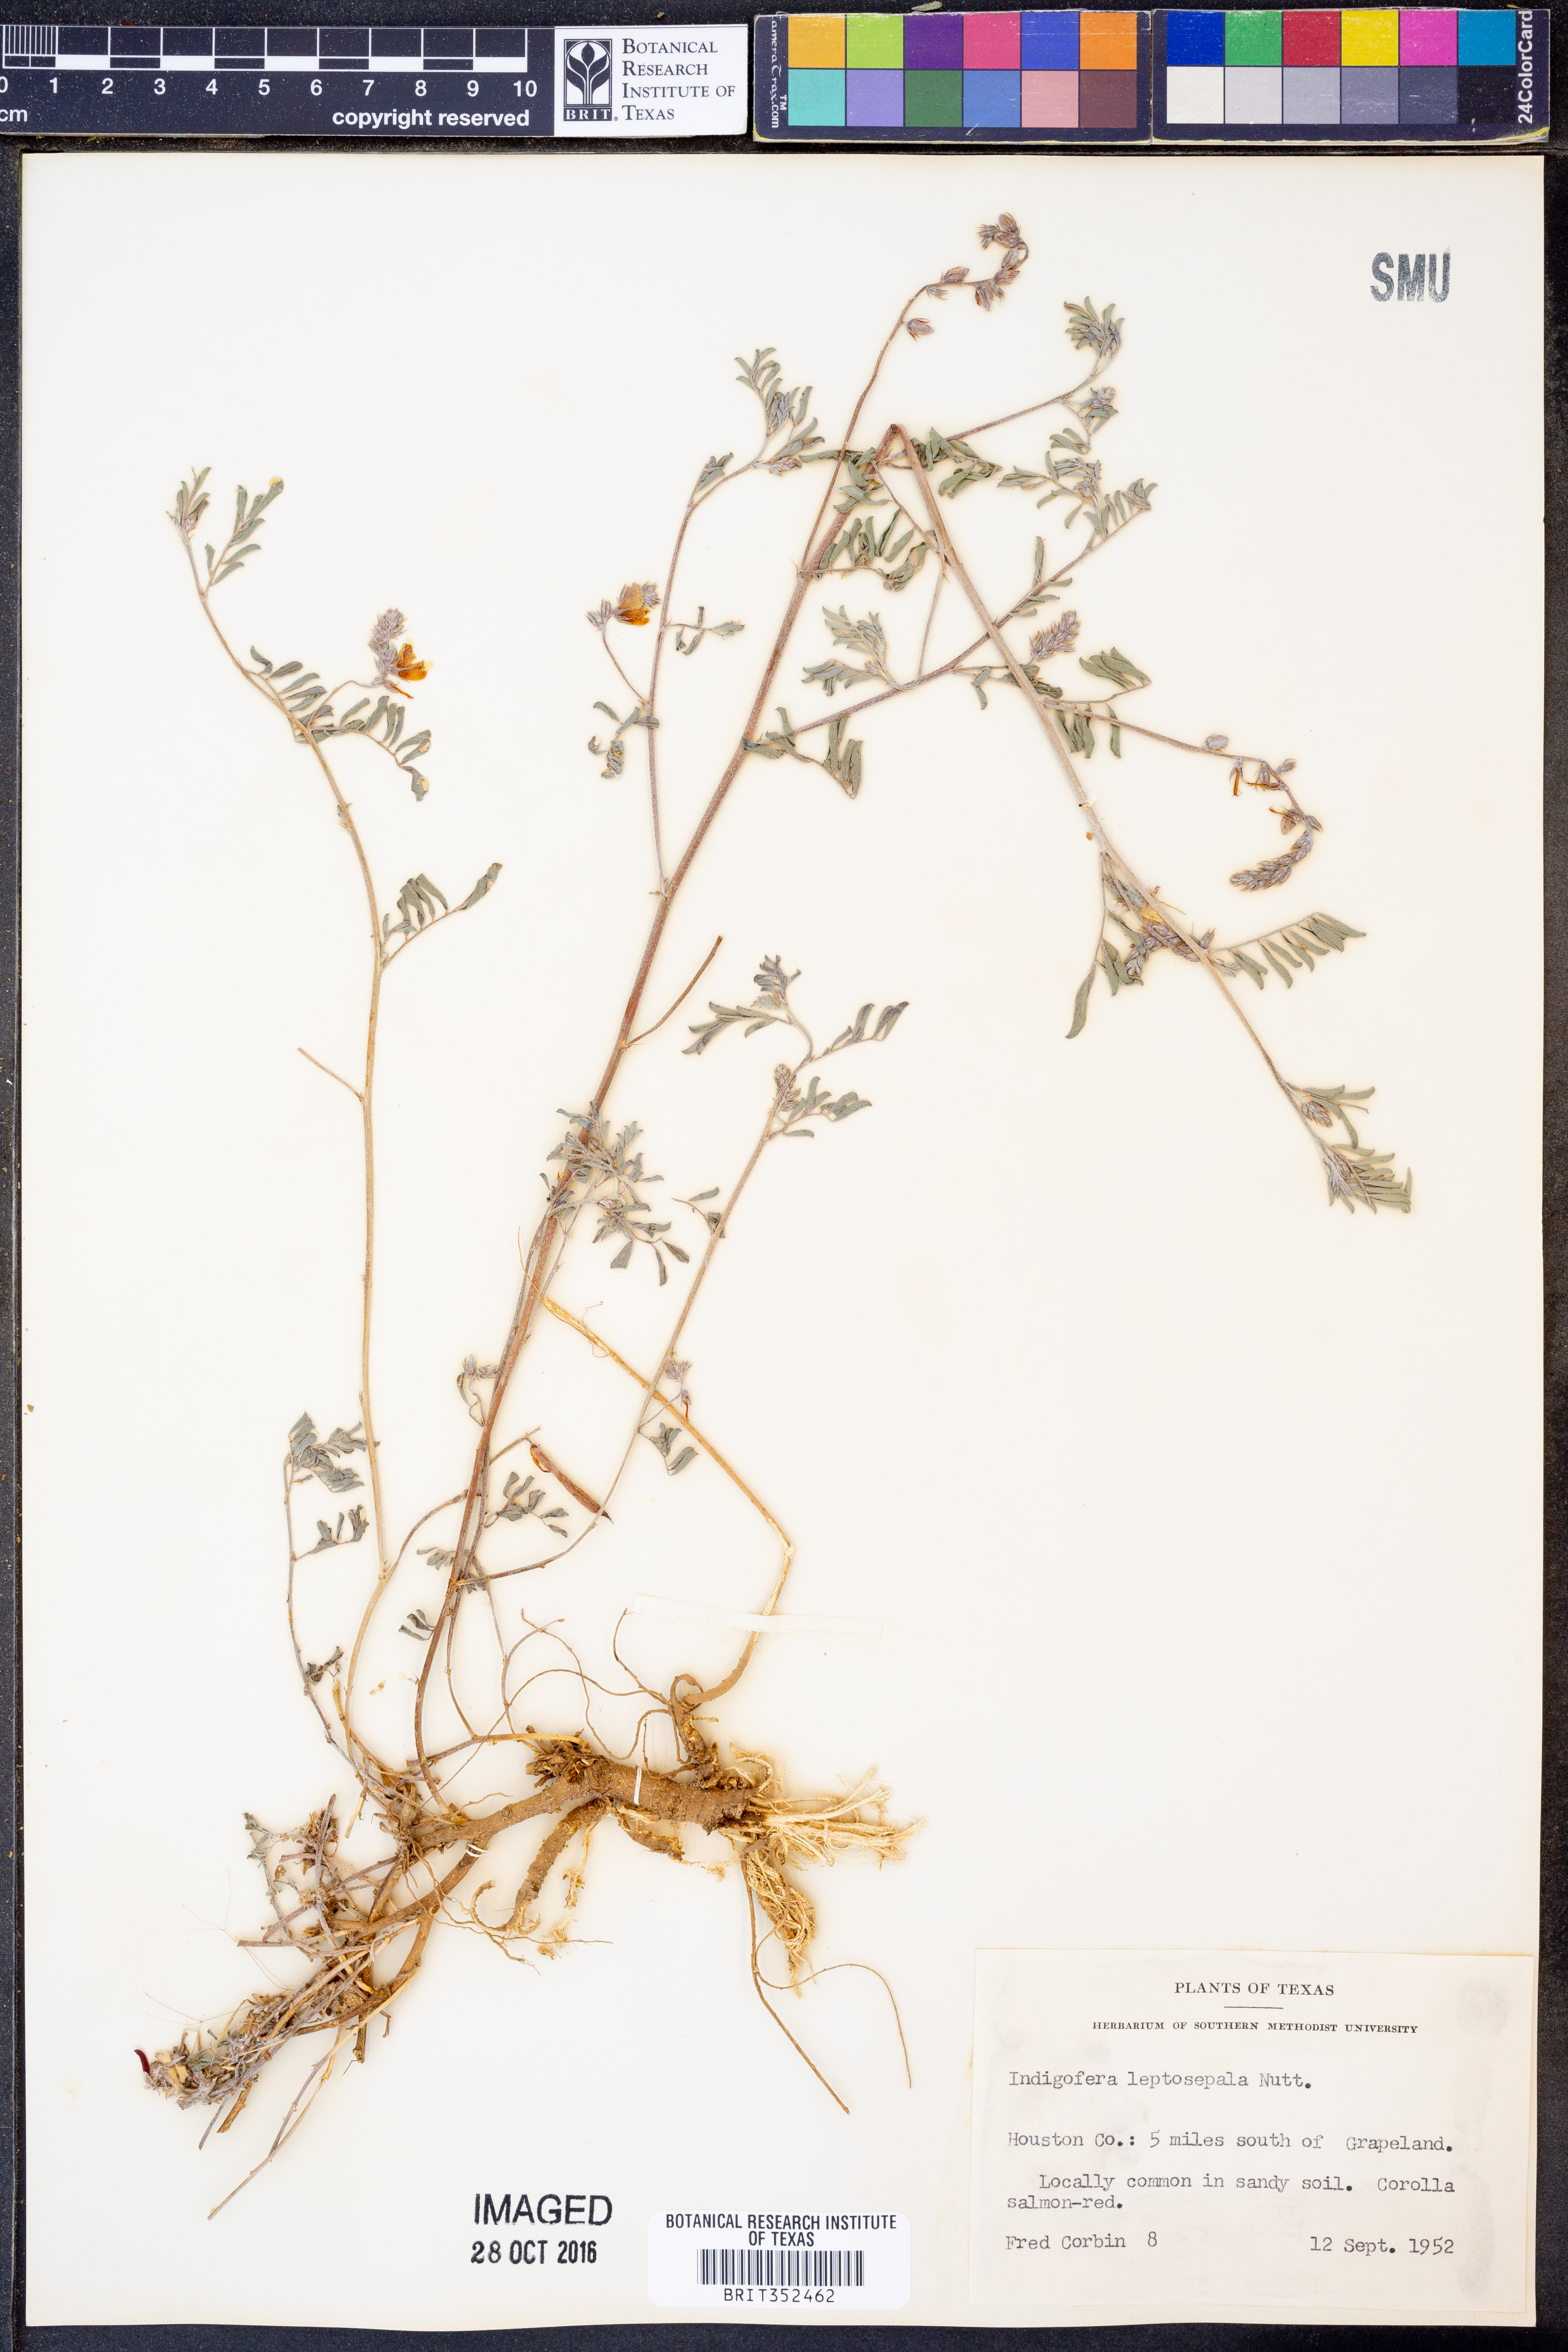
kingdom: Plantae
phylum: Tracheophyta
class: Magnoliopsida
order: Fabales
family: Fabaceae
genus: Indigofera
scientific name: Indigofera argutidens
